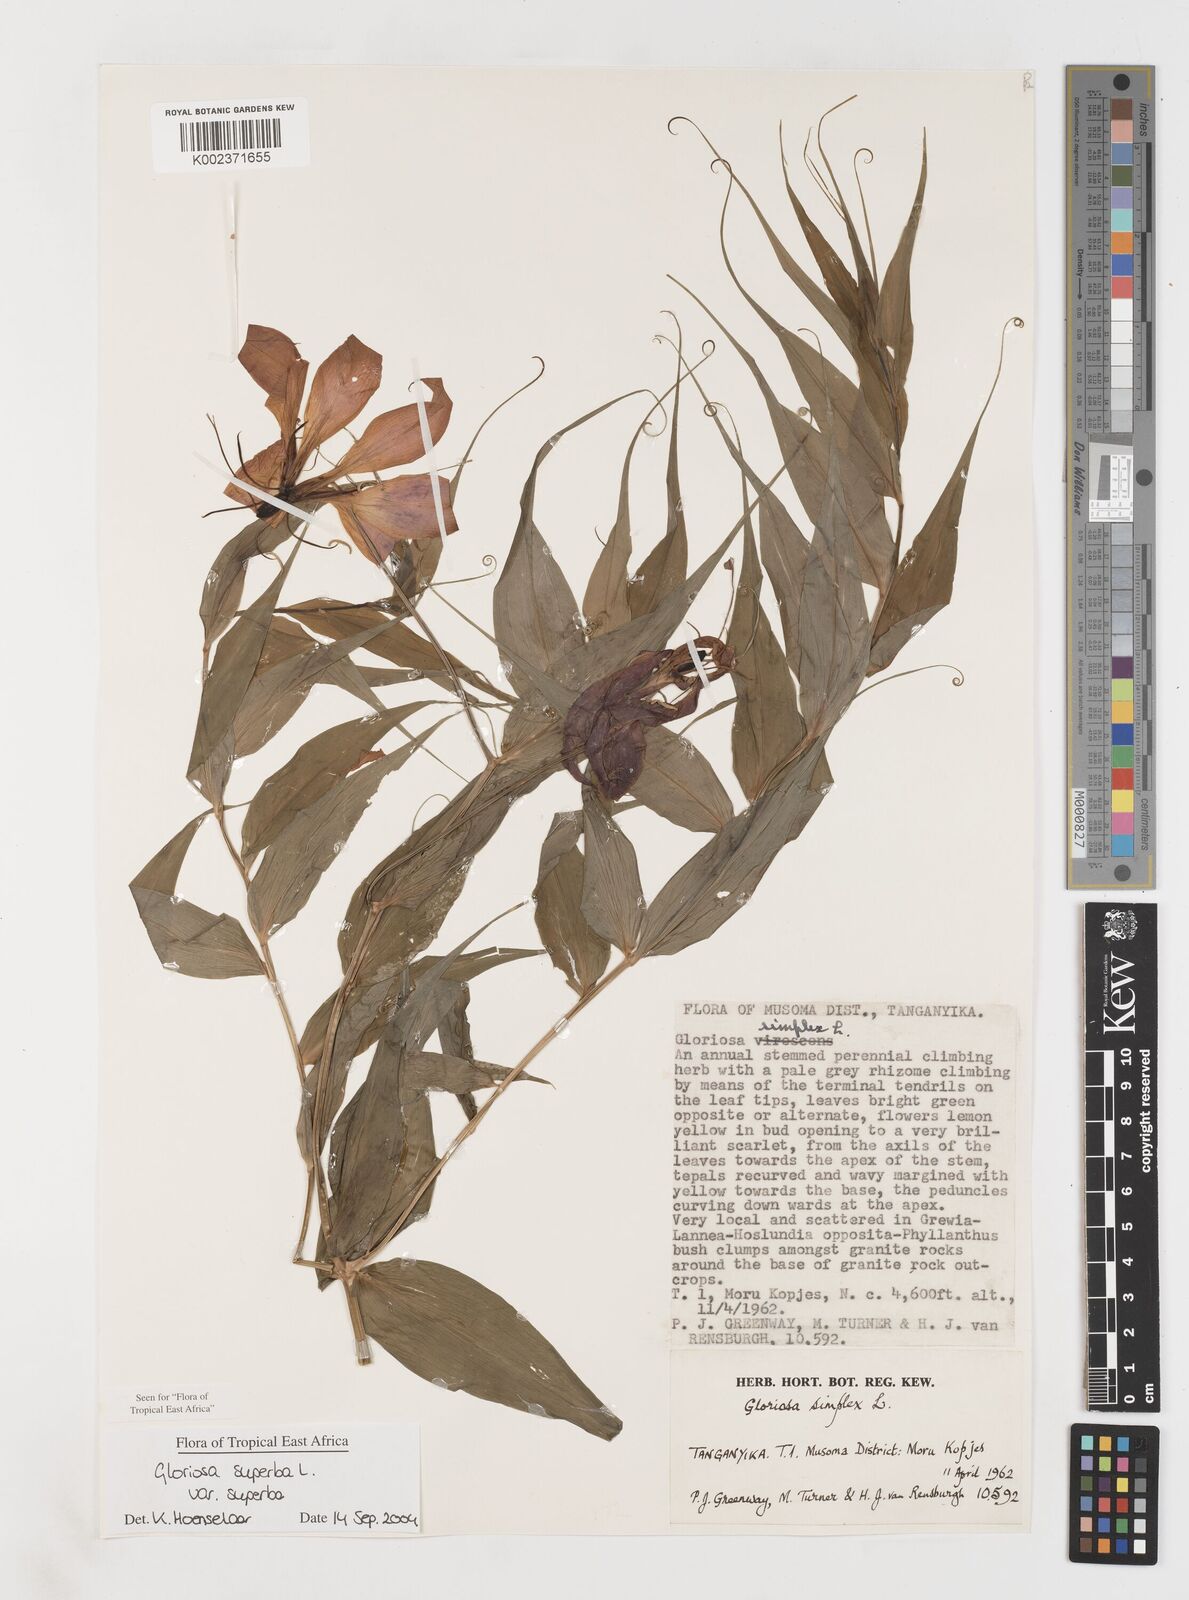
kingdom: Plantae
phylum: Tracheophyta
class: Liliopsida
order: Liliales
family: Colchicaceae
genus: Gloriosa
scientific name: Gloriosa simplex
